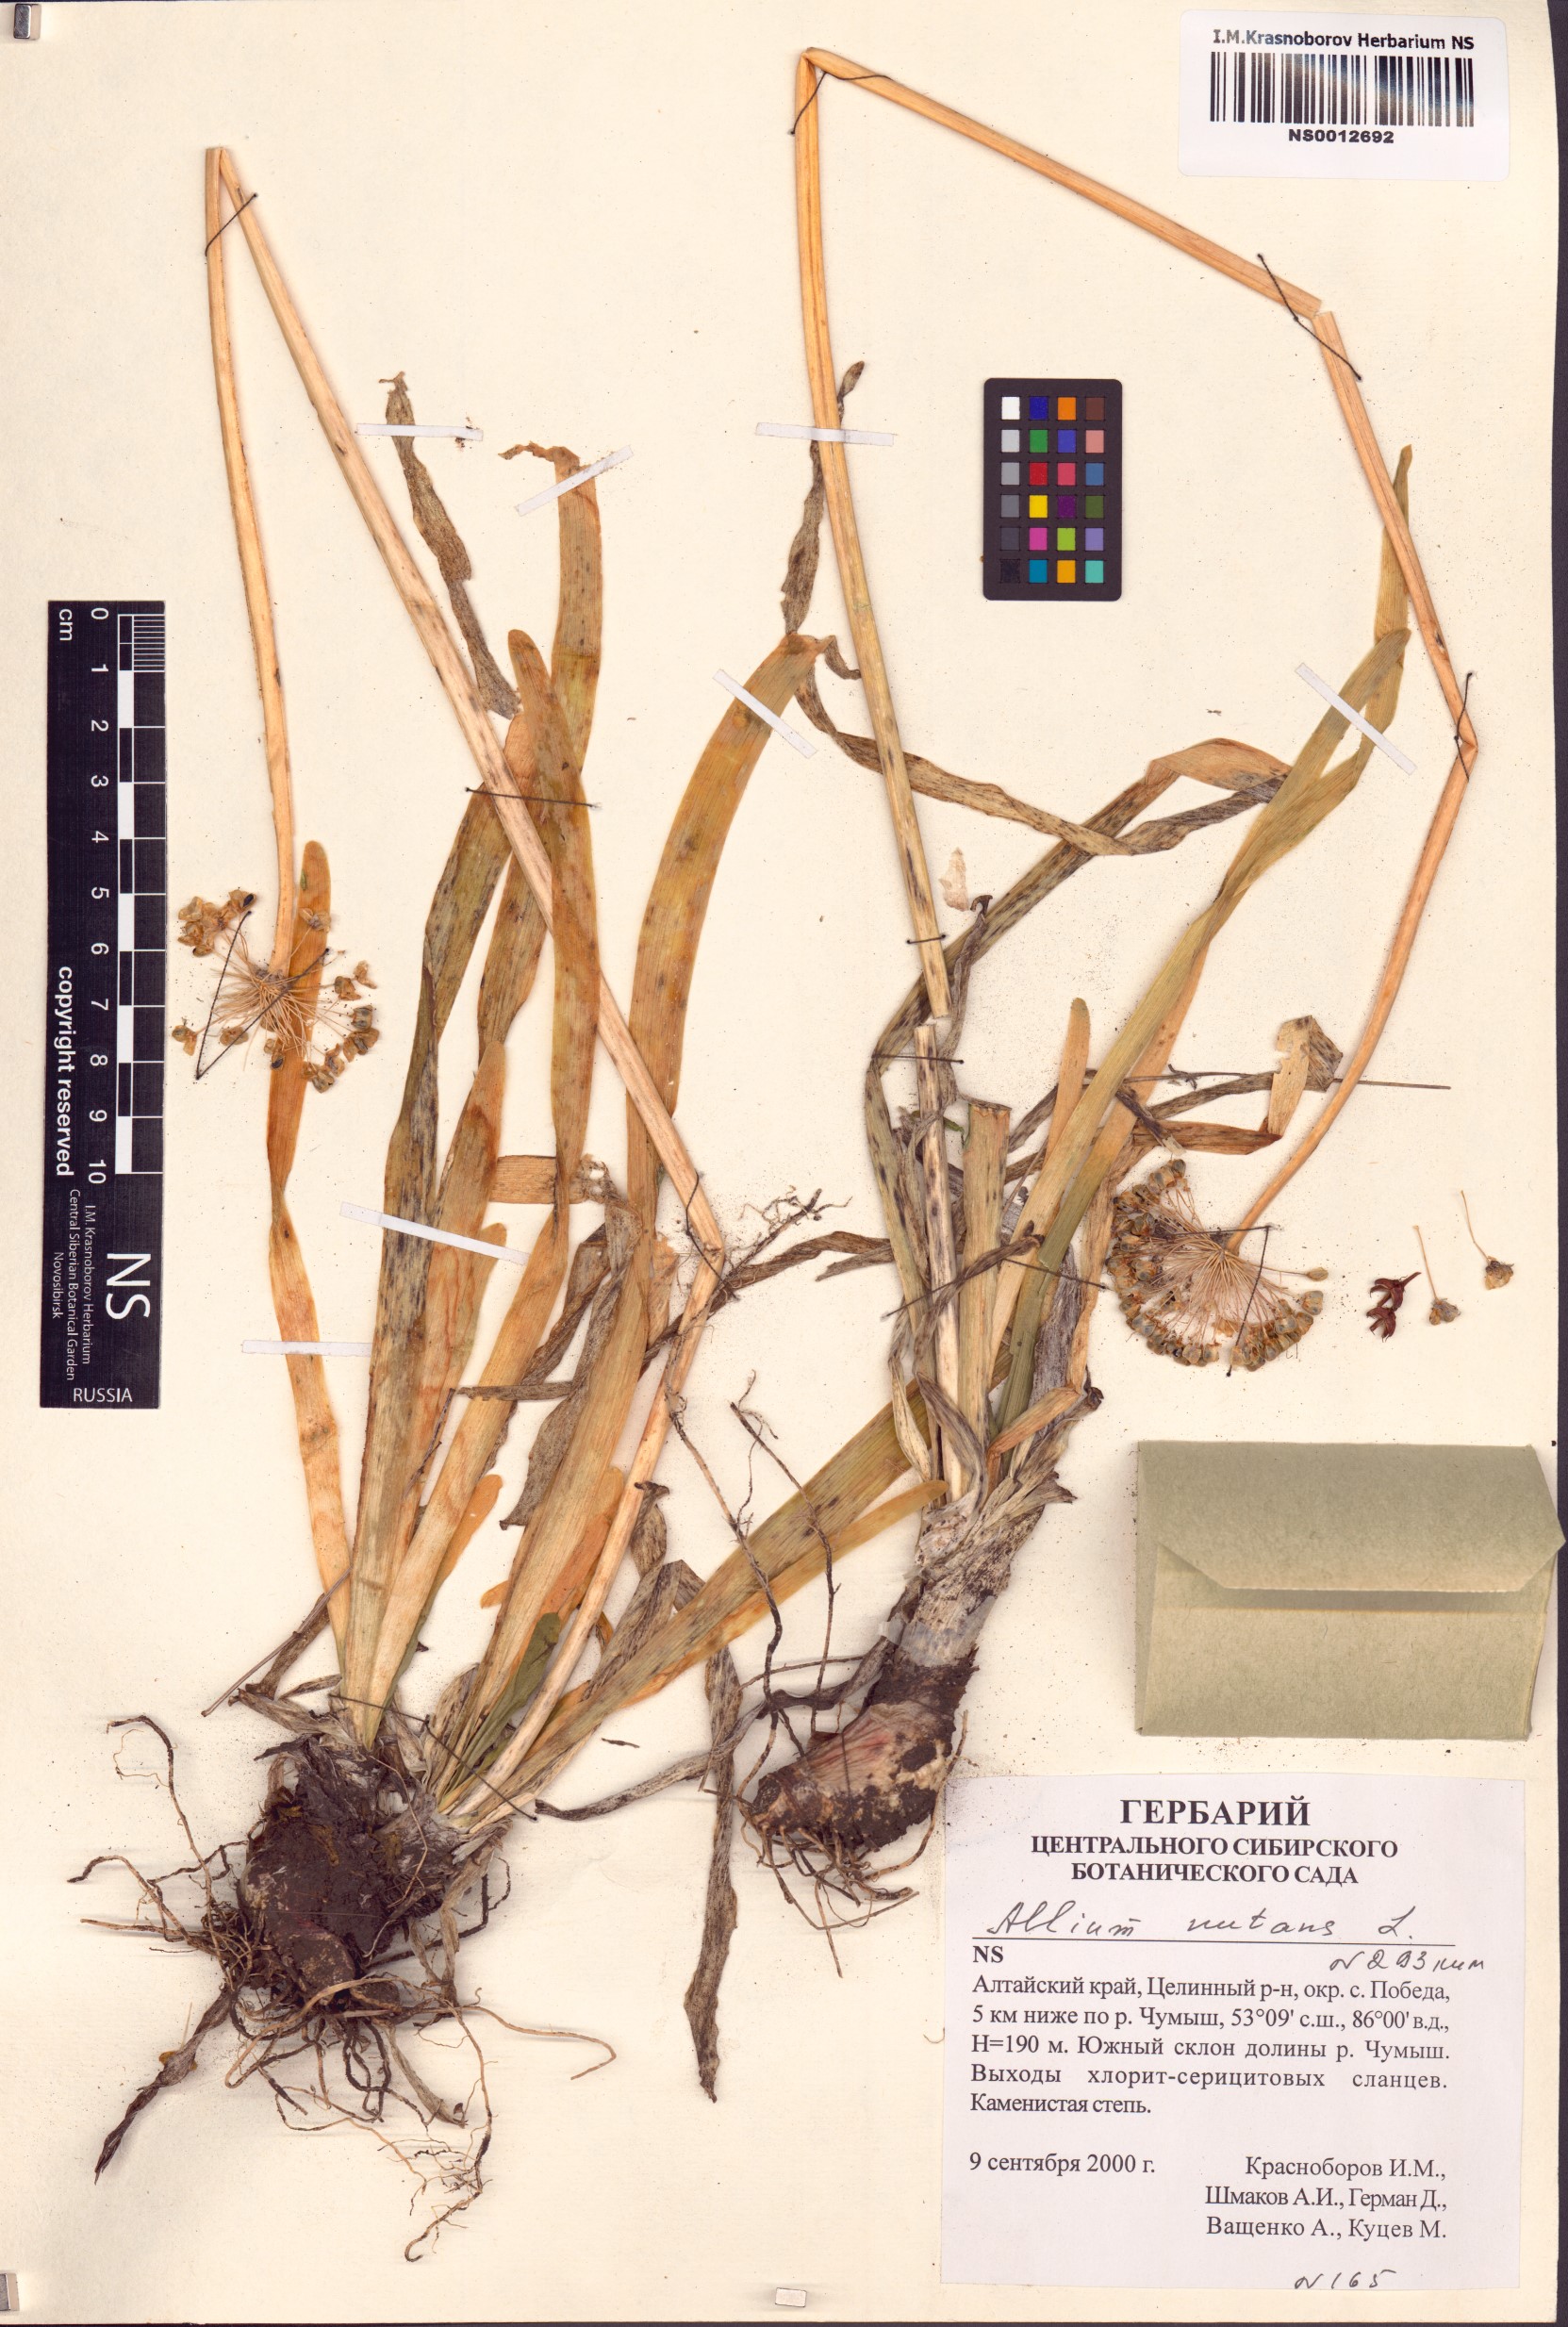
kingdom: Plantae
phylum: Tracheophyta
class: Liliopsida
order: Asparagales
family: Amaryllidaceae
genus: Allium
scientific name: Allium nutans
